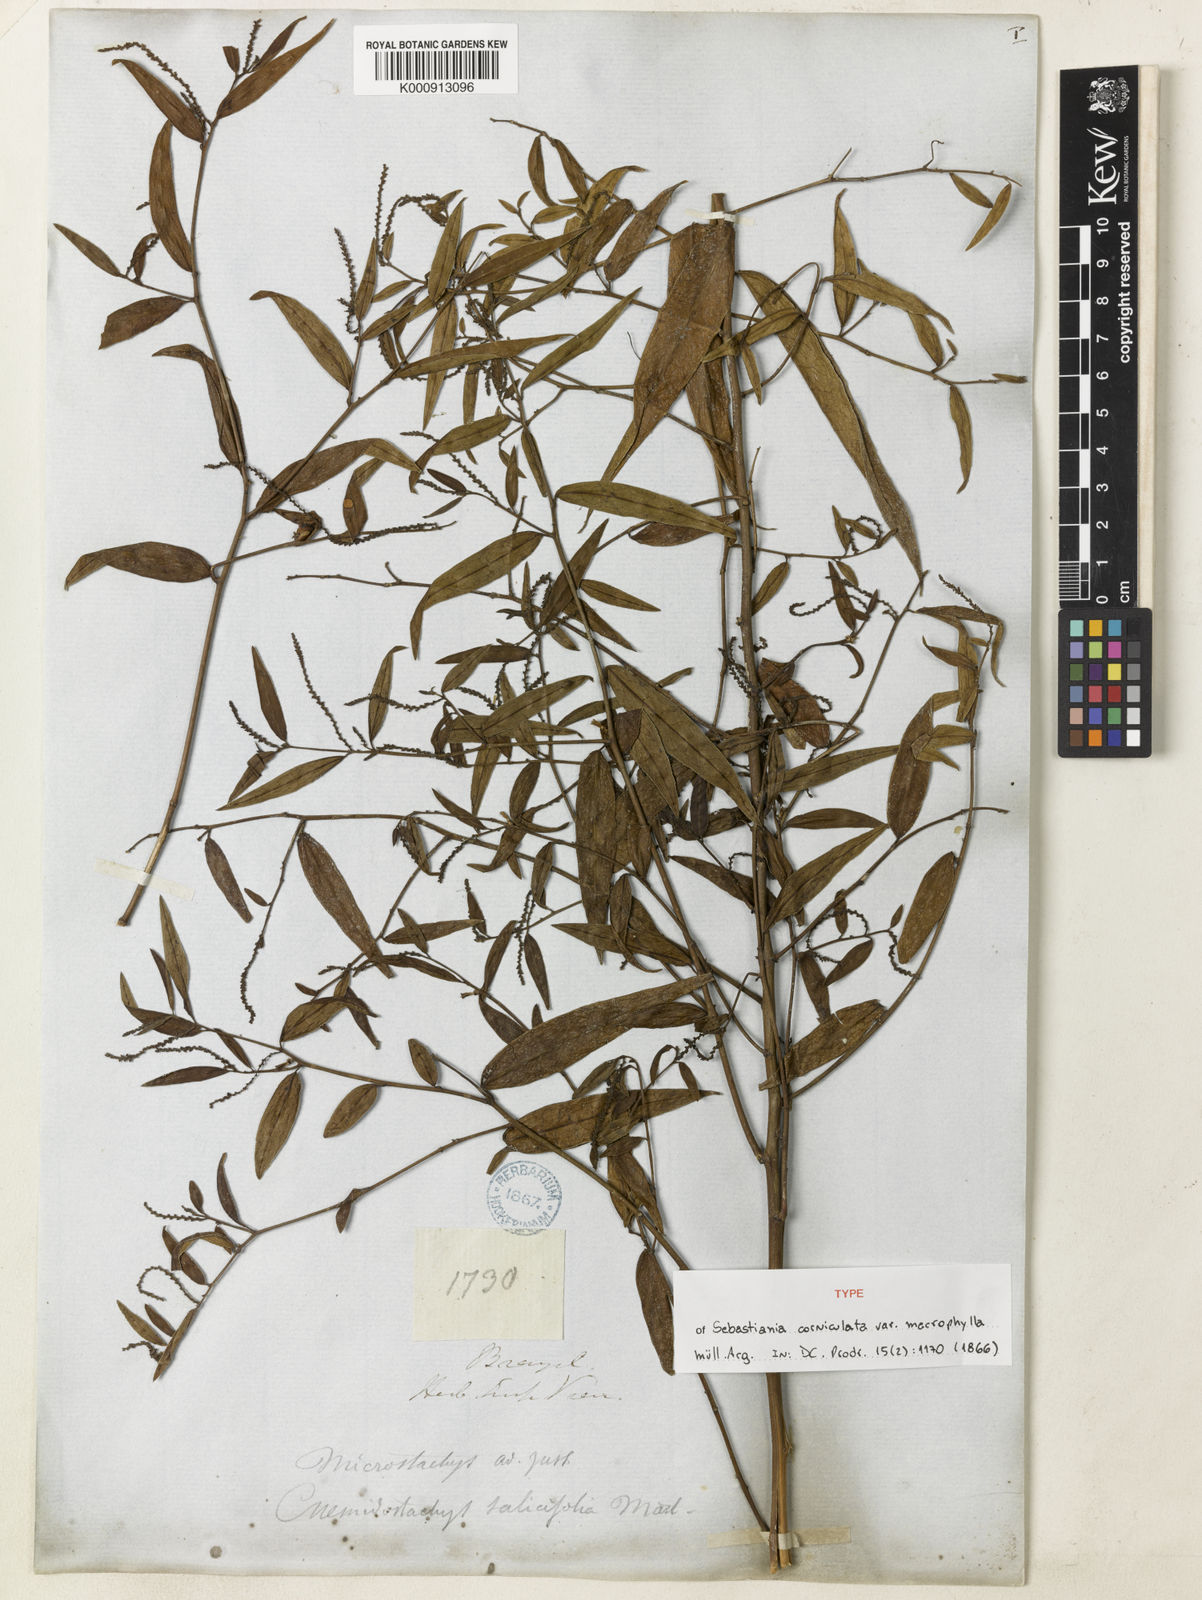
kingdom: Plantae
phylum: Tracheophyta
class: Magnoliopsida
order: Malpighiales
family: Euphorbiaceae
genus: Microstachys
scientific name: Microstachys hispida
